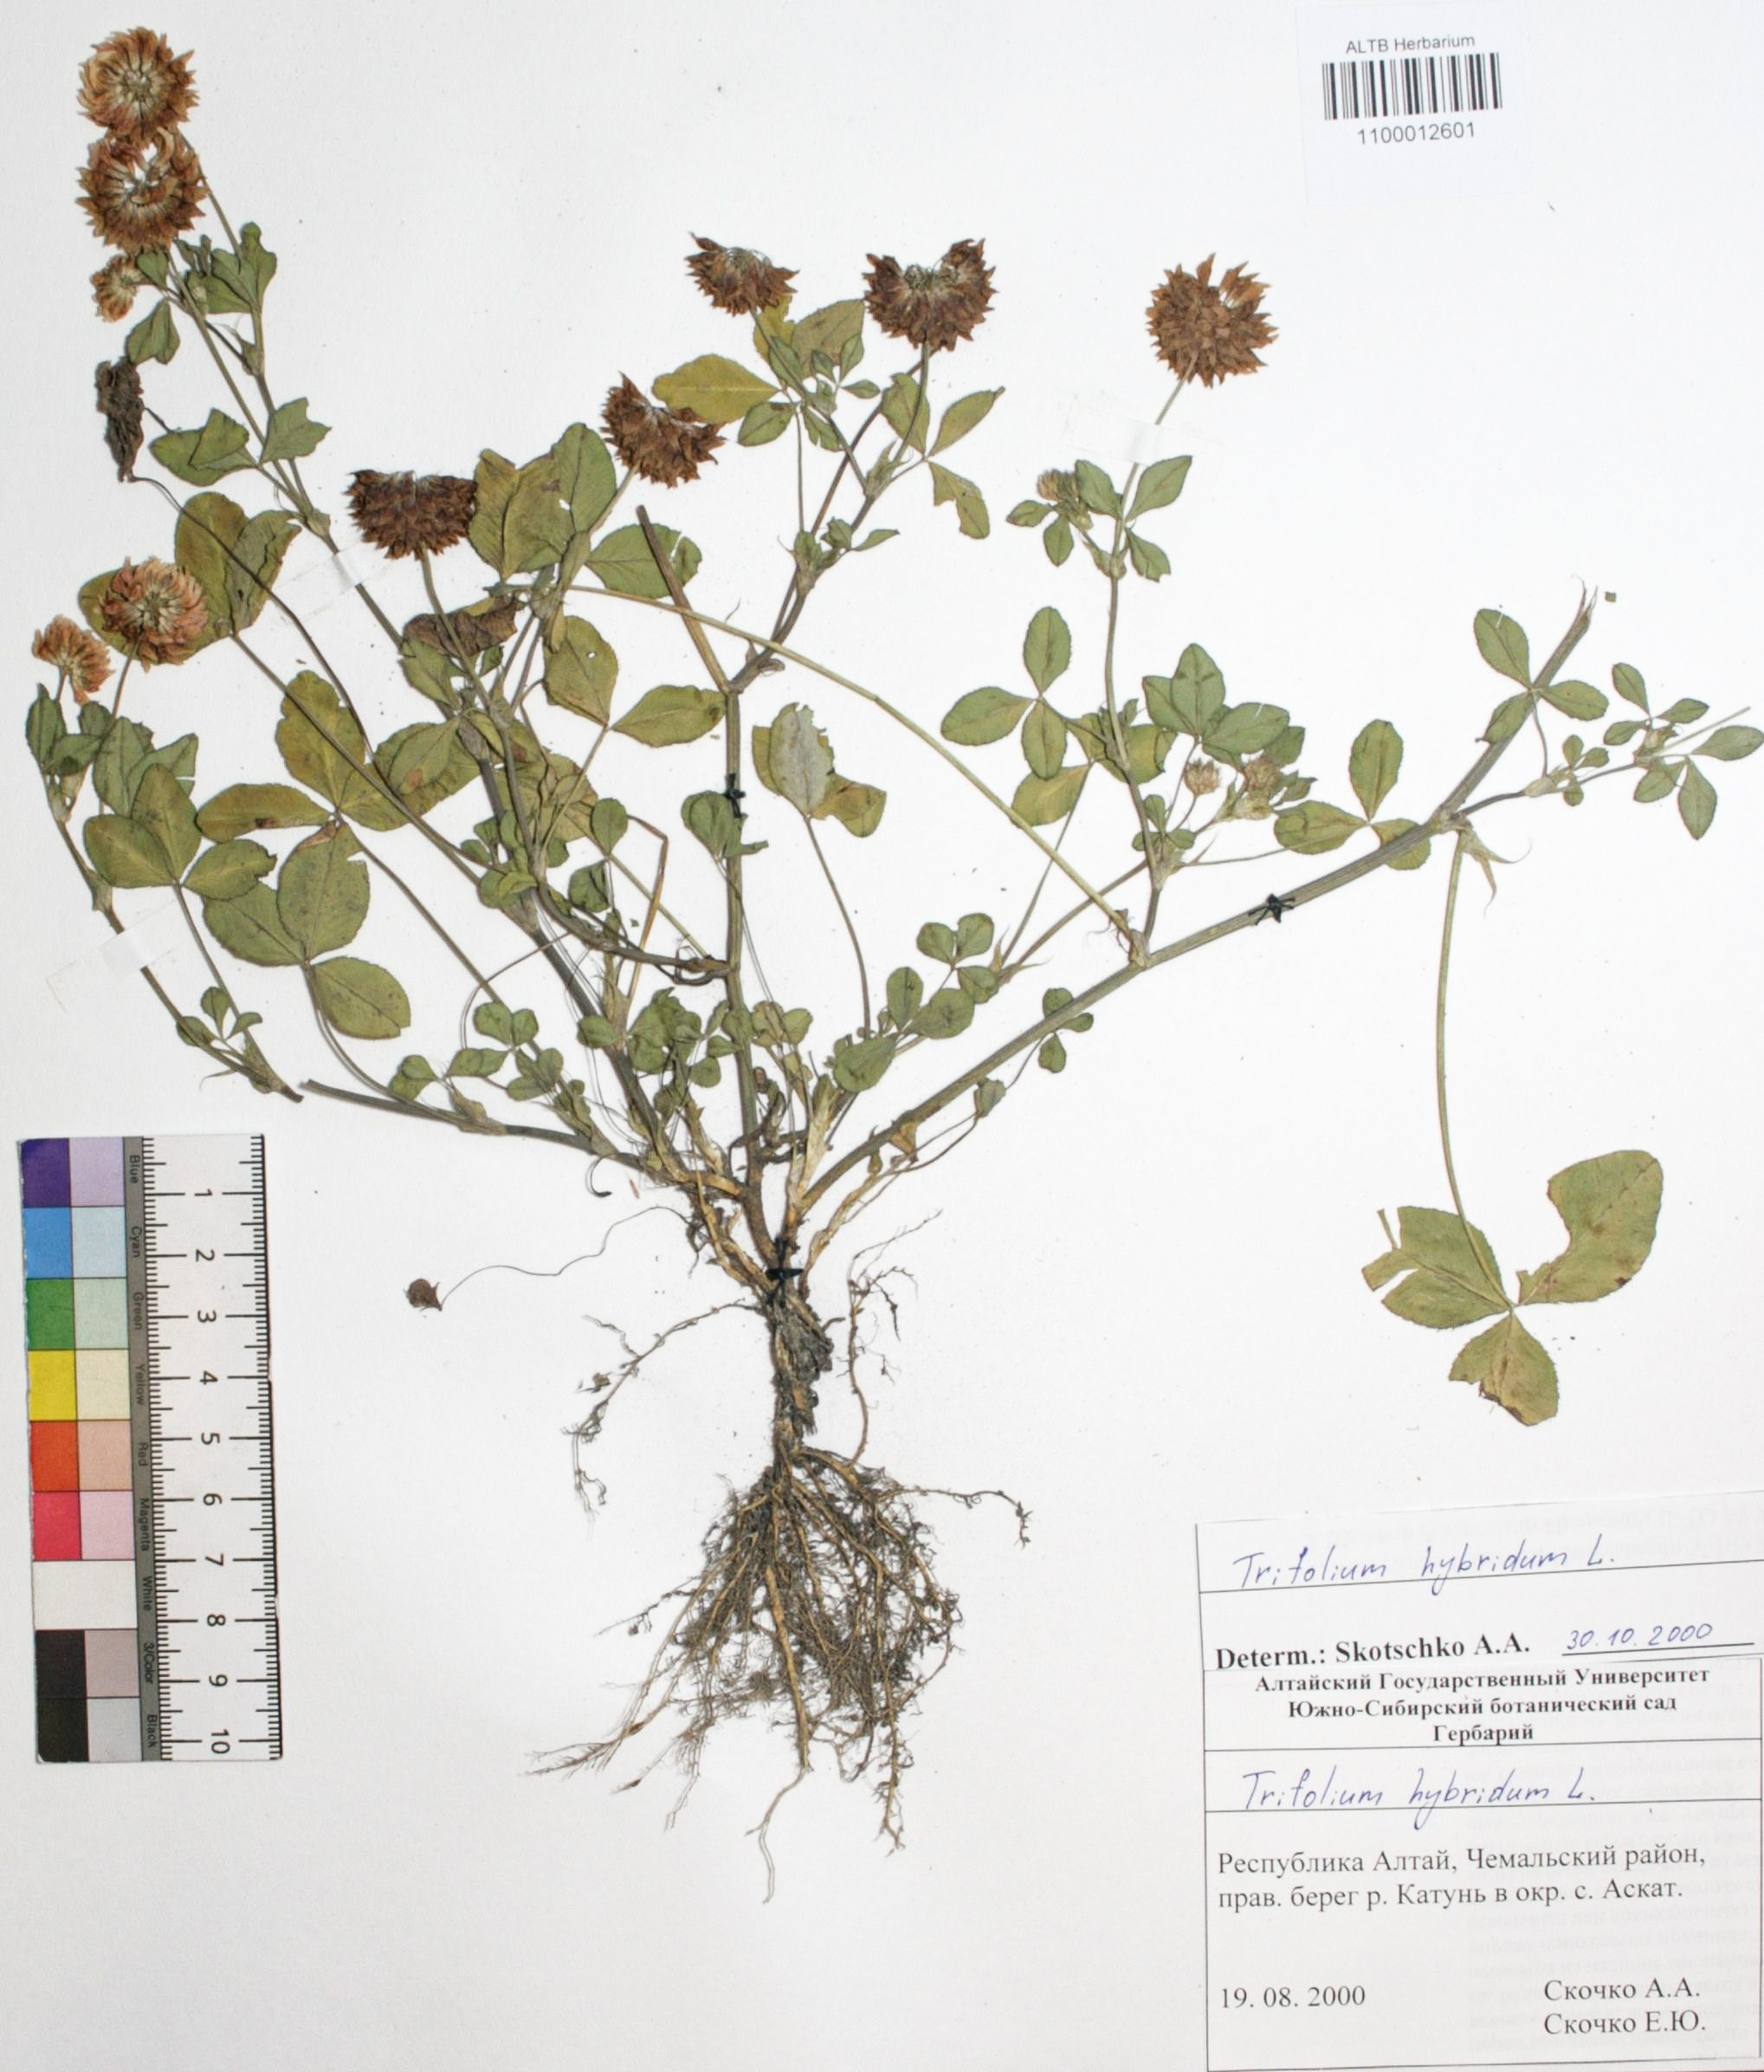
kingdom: Plantae
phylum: Tracheophyta
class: Magnoliopsida
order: Fabales
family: Fabaceae
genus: Trifolium
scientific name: Trifolium hybridum
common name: Alsike clover
